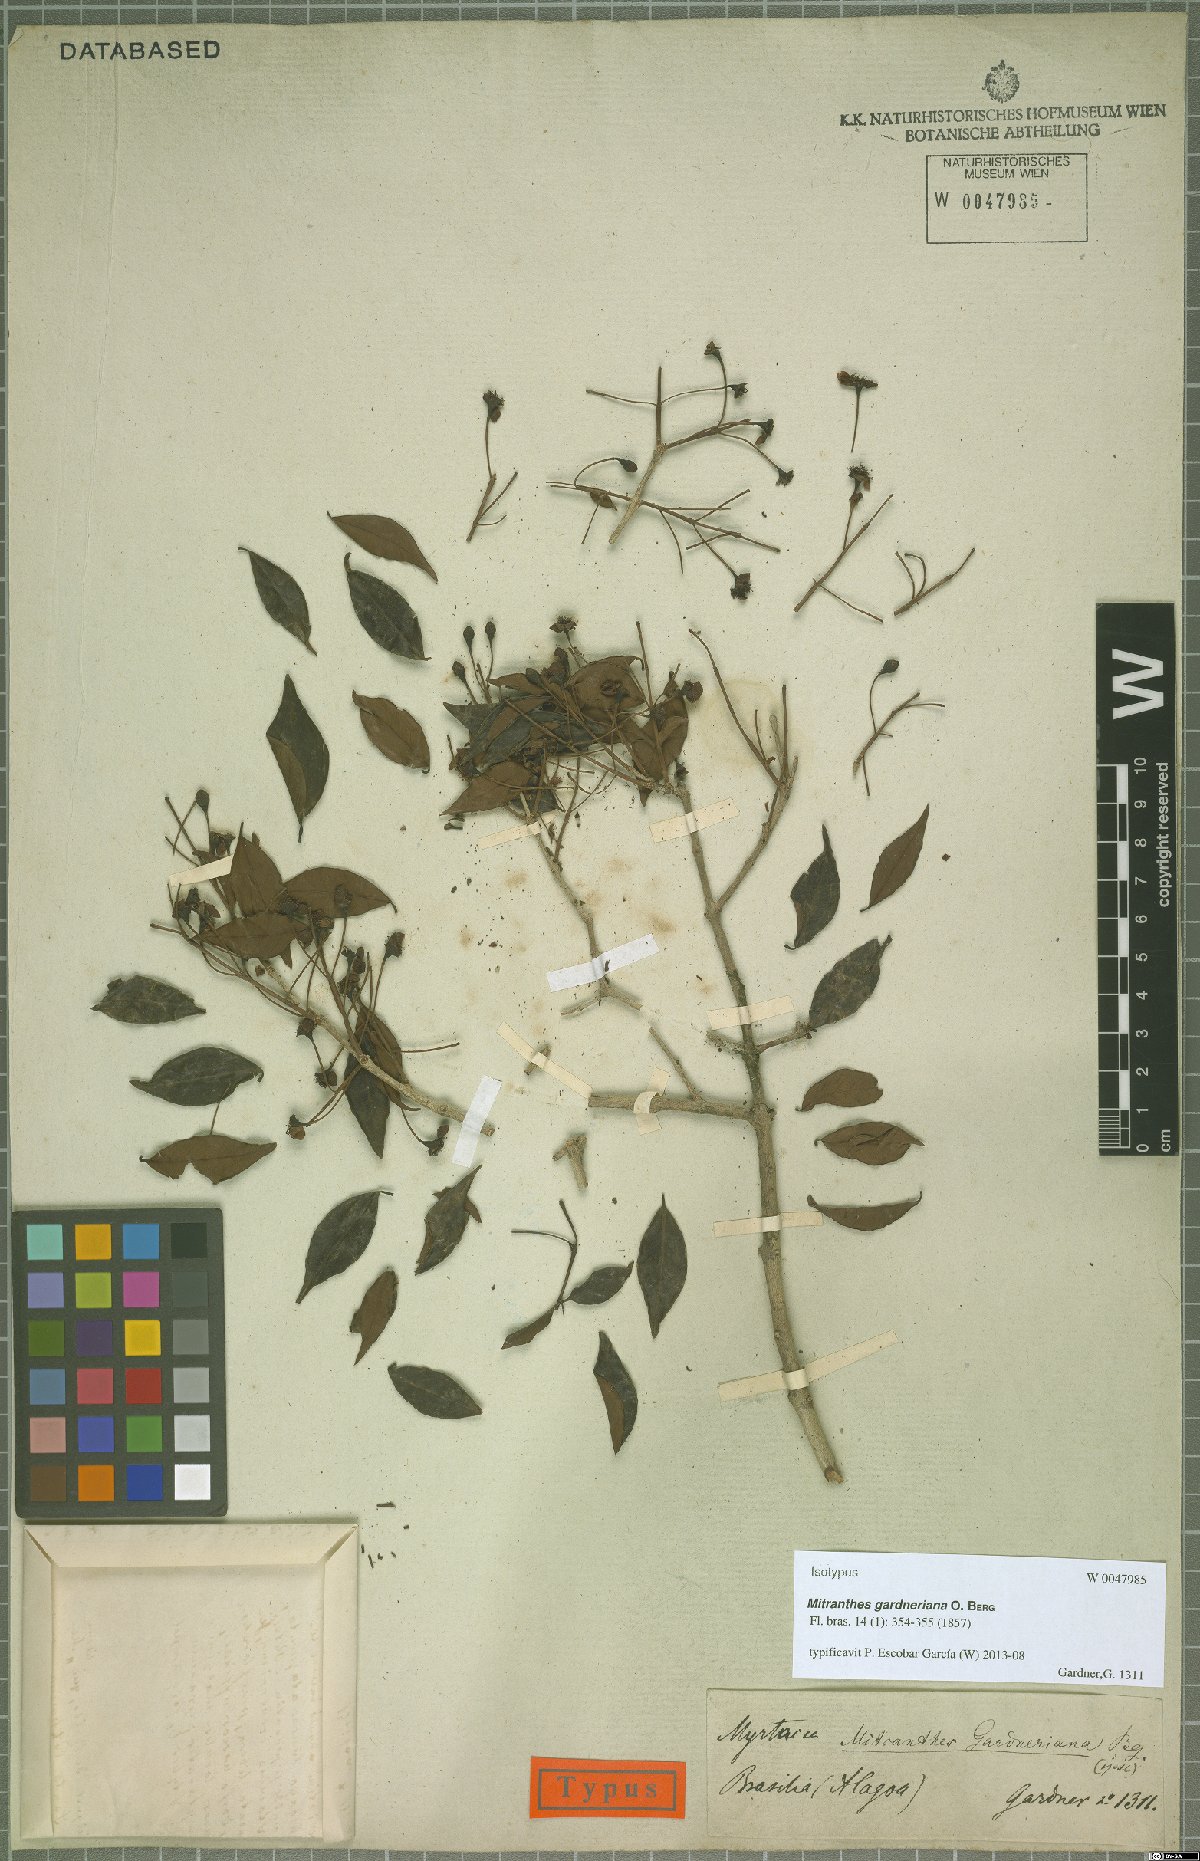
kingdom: Plantae
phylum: Tracheophyta
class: Magnoliopsida
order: Myrtales
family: Myrtaceae
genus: Psidium
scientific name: Psidium oligospermum
